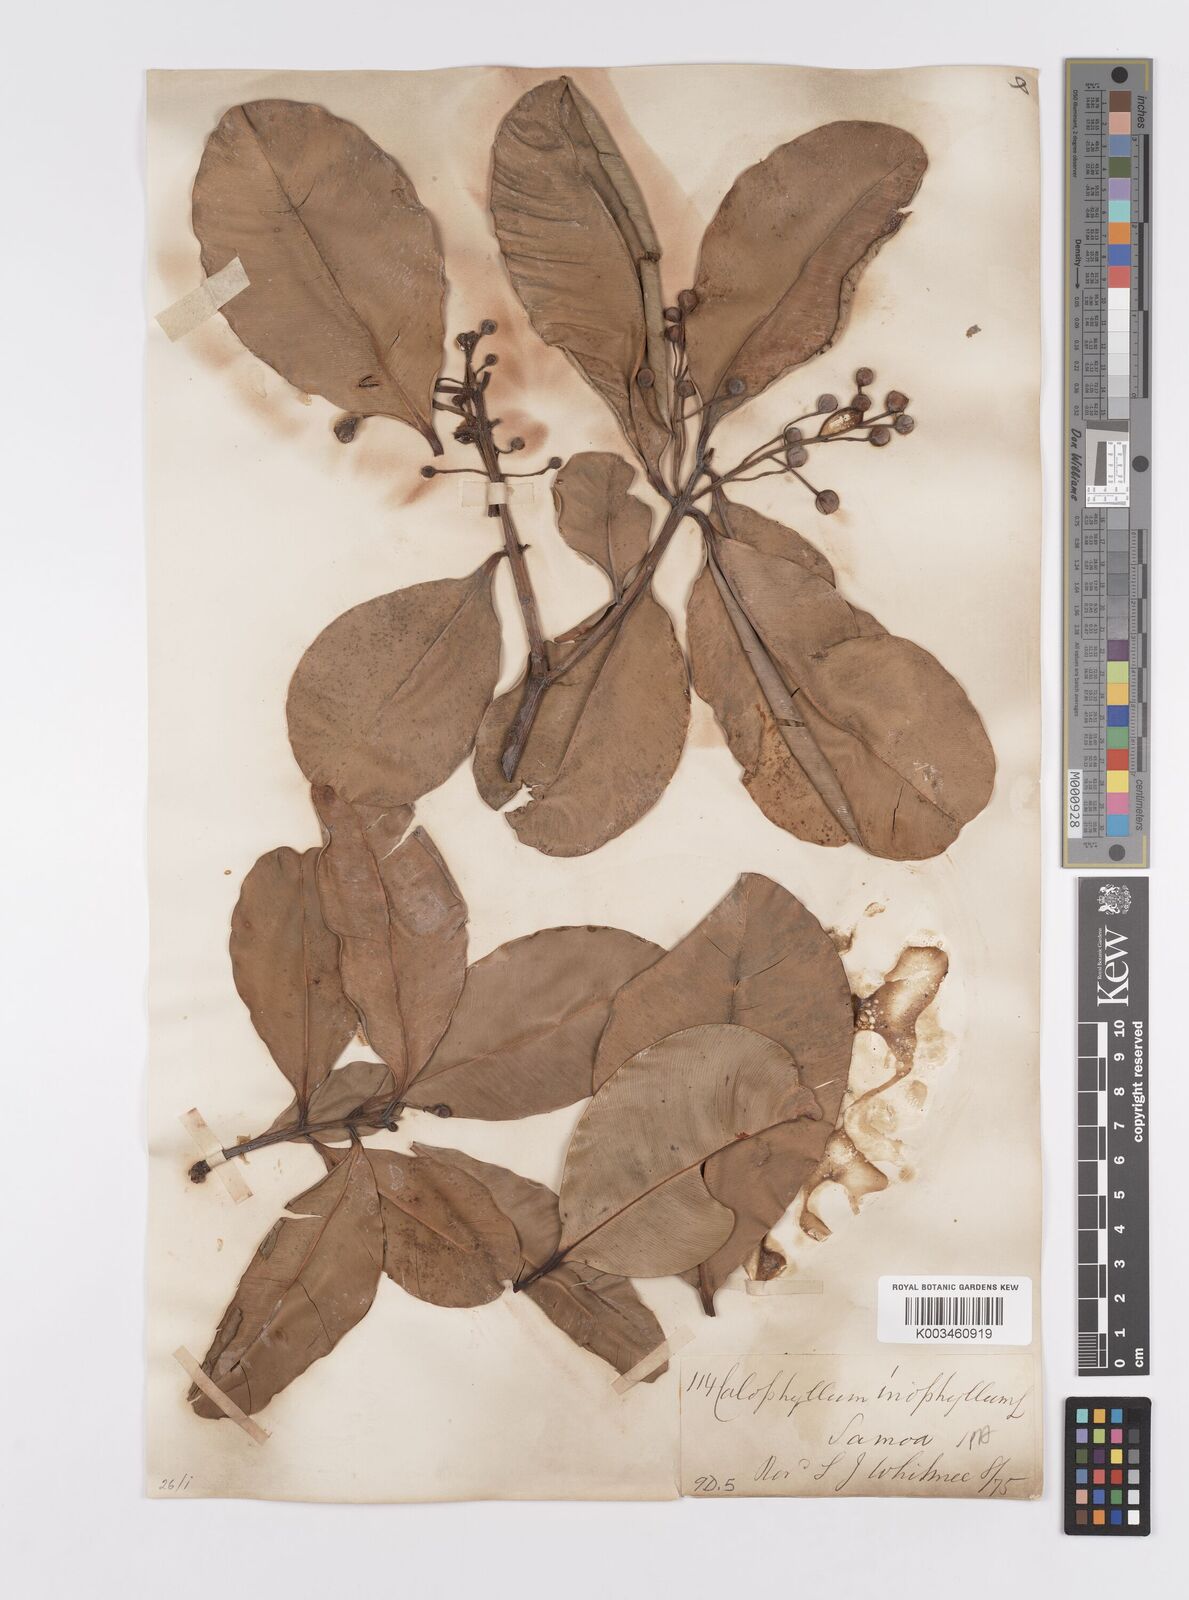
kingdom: Plantae
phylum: Tracheophyta
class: Magnoliopsida
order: Malpighiales
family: Calophyllaceae
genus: Calophyllum
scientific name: Calophyllum inophyllum
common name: Alexandrian laurel
